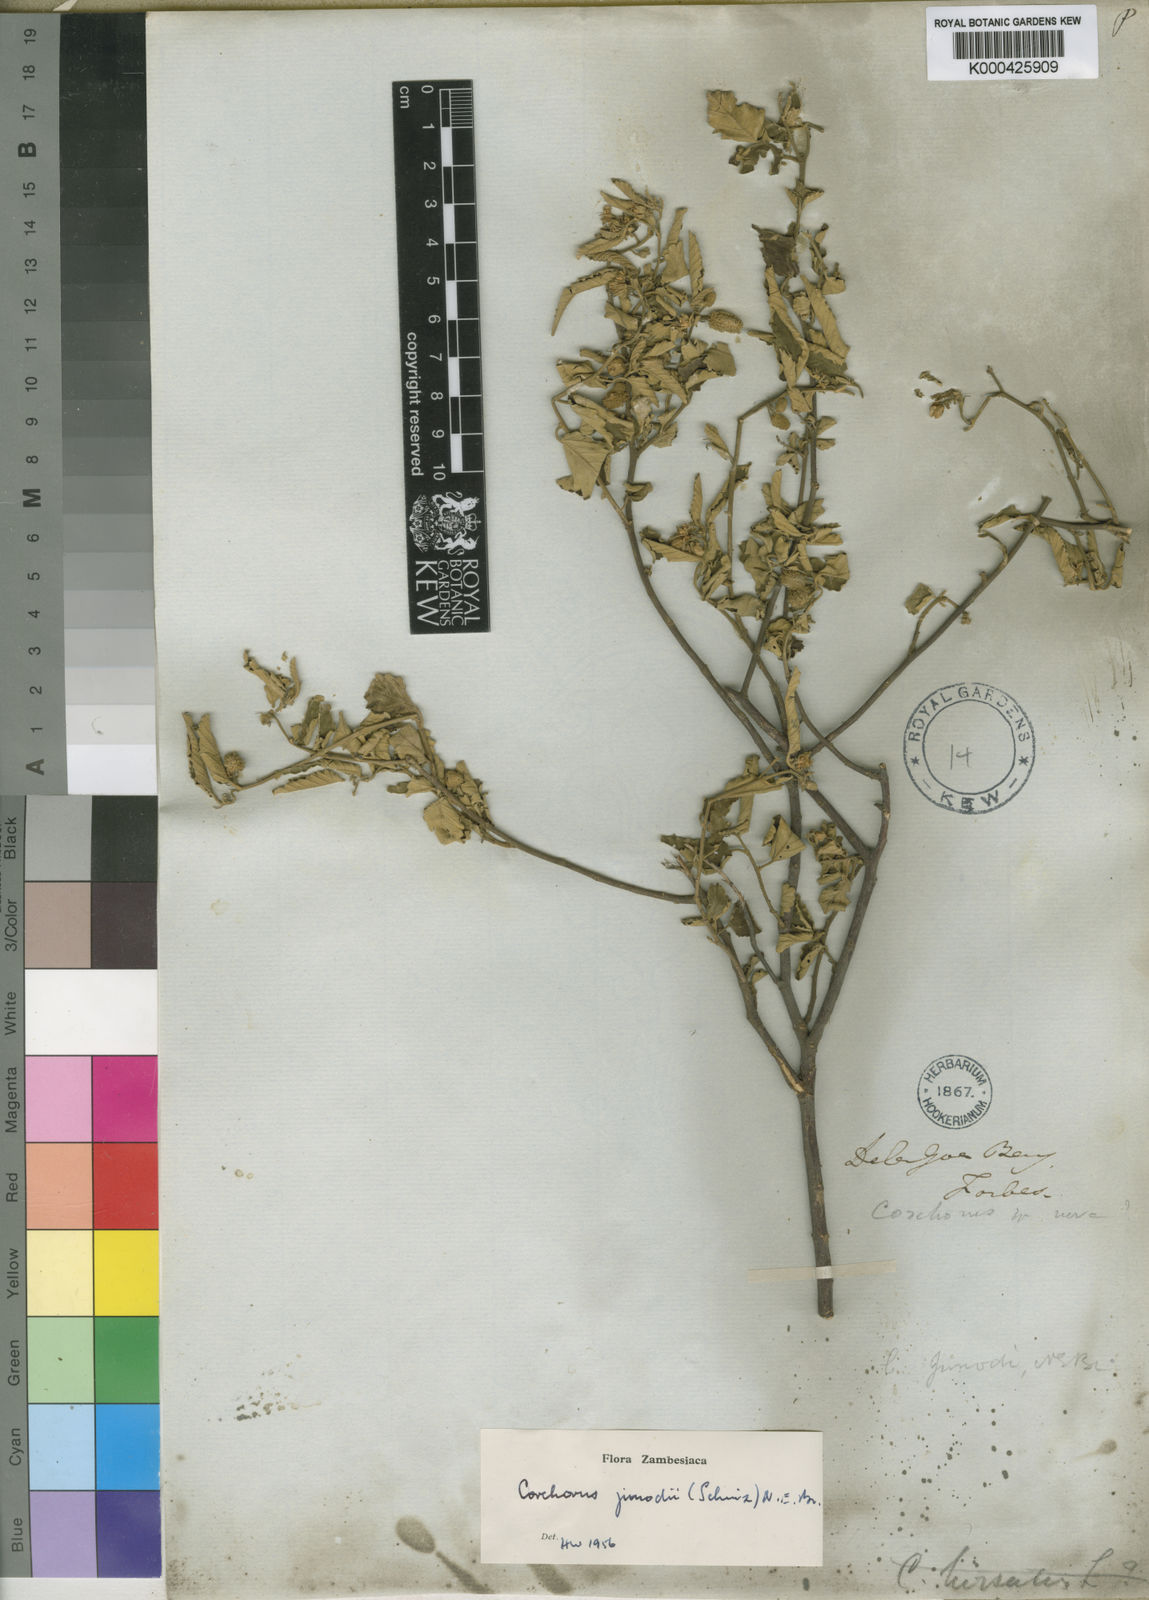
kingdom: Plantae
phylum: Tracheophyta
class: Magnoliopsida
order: Malvales
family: Malvaceae
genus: Corchorus
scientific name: Corchorus junodii
